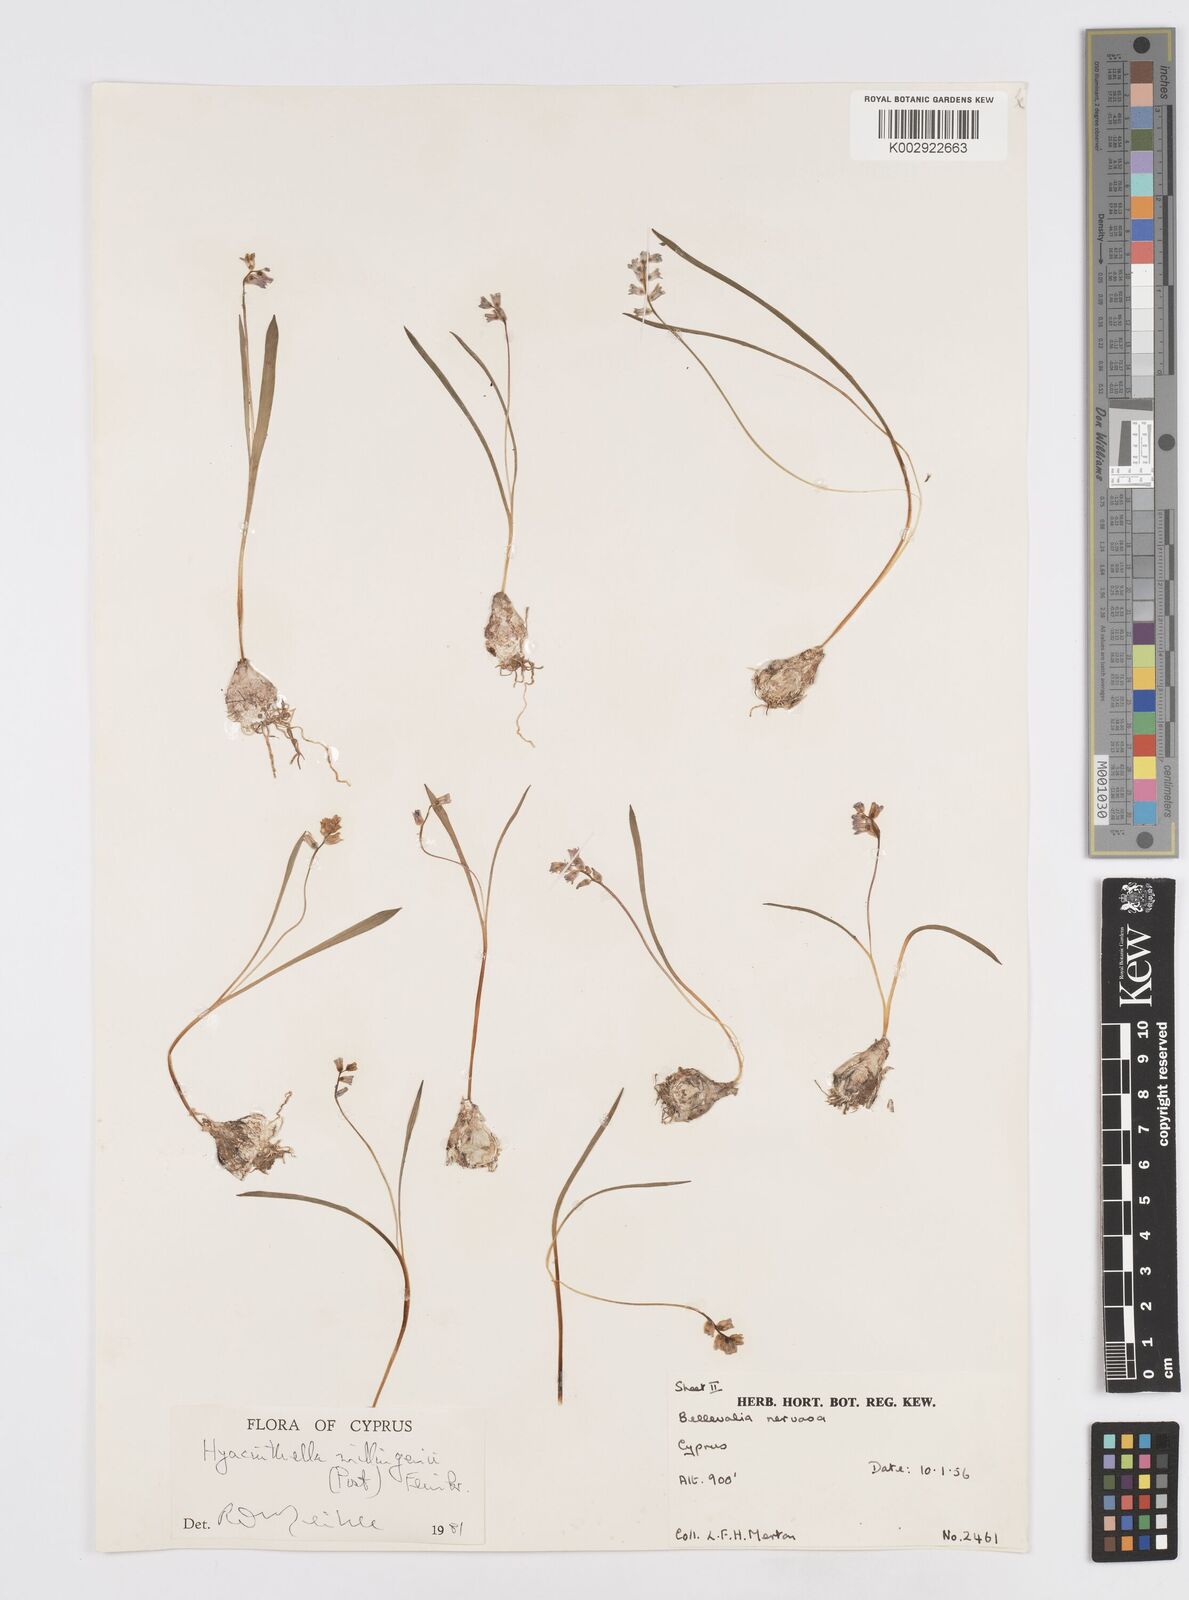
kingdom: Plantae
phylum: Tracheophyta
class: Liliopsida
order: Asparagales
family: Asparagaceae
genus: Hyacinthella
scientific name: Hyacinthella millingenii
